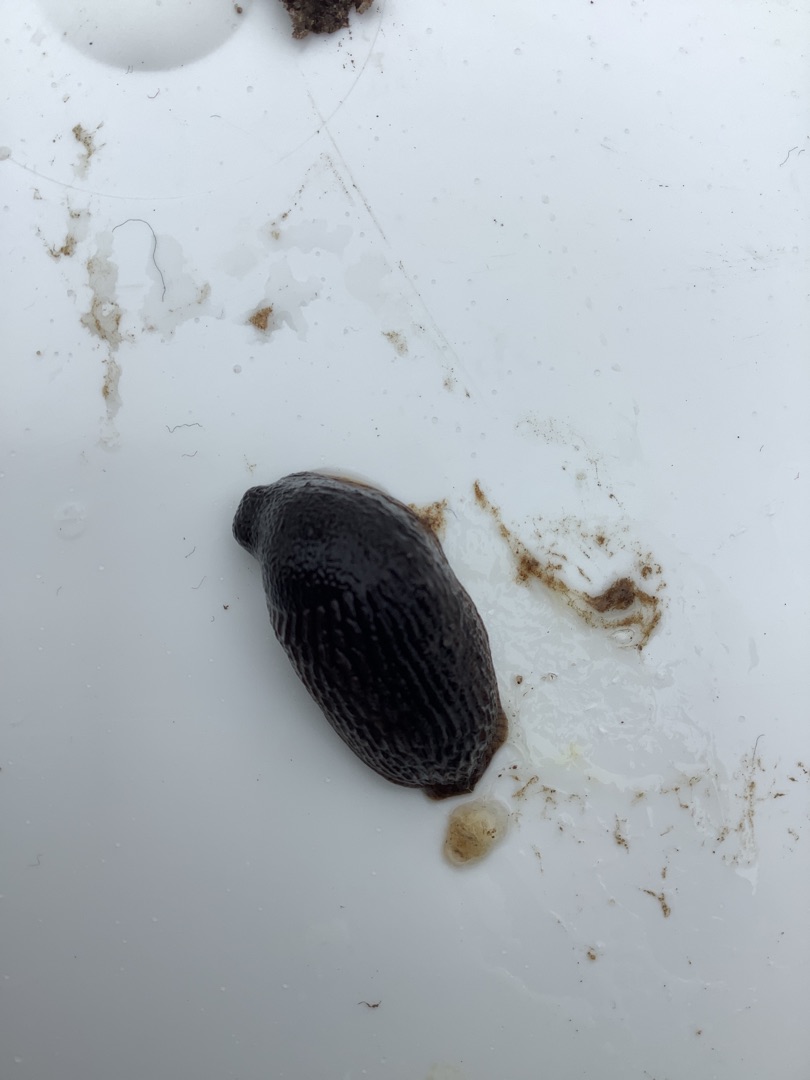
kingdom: Animalia
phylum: Mollusca
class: Gastropoda
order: Stylommatophora
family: Arionidae
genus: Arion
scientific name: Arion
